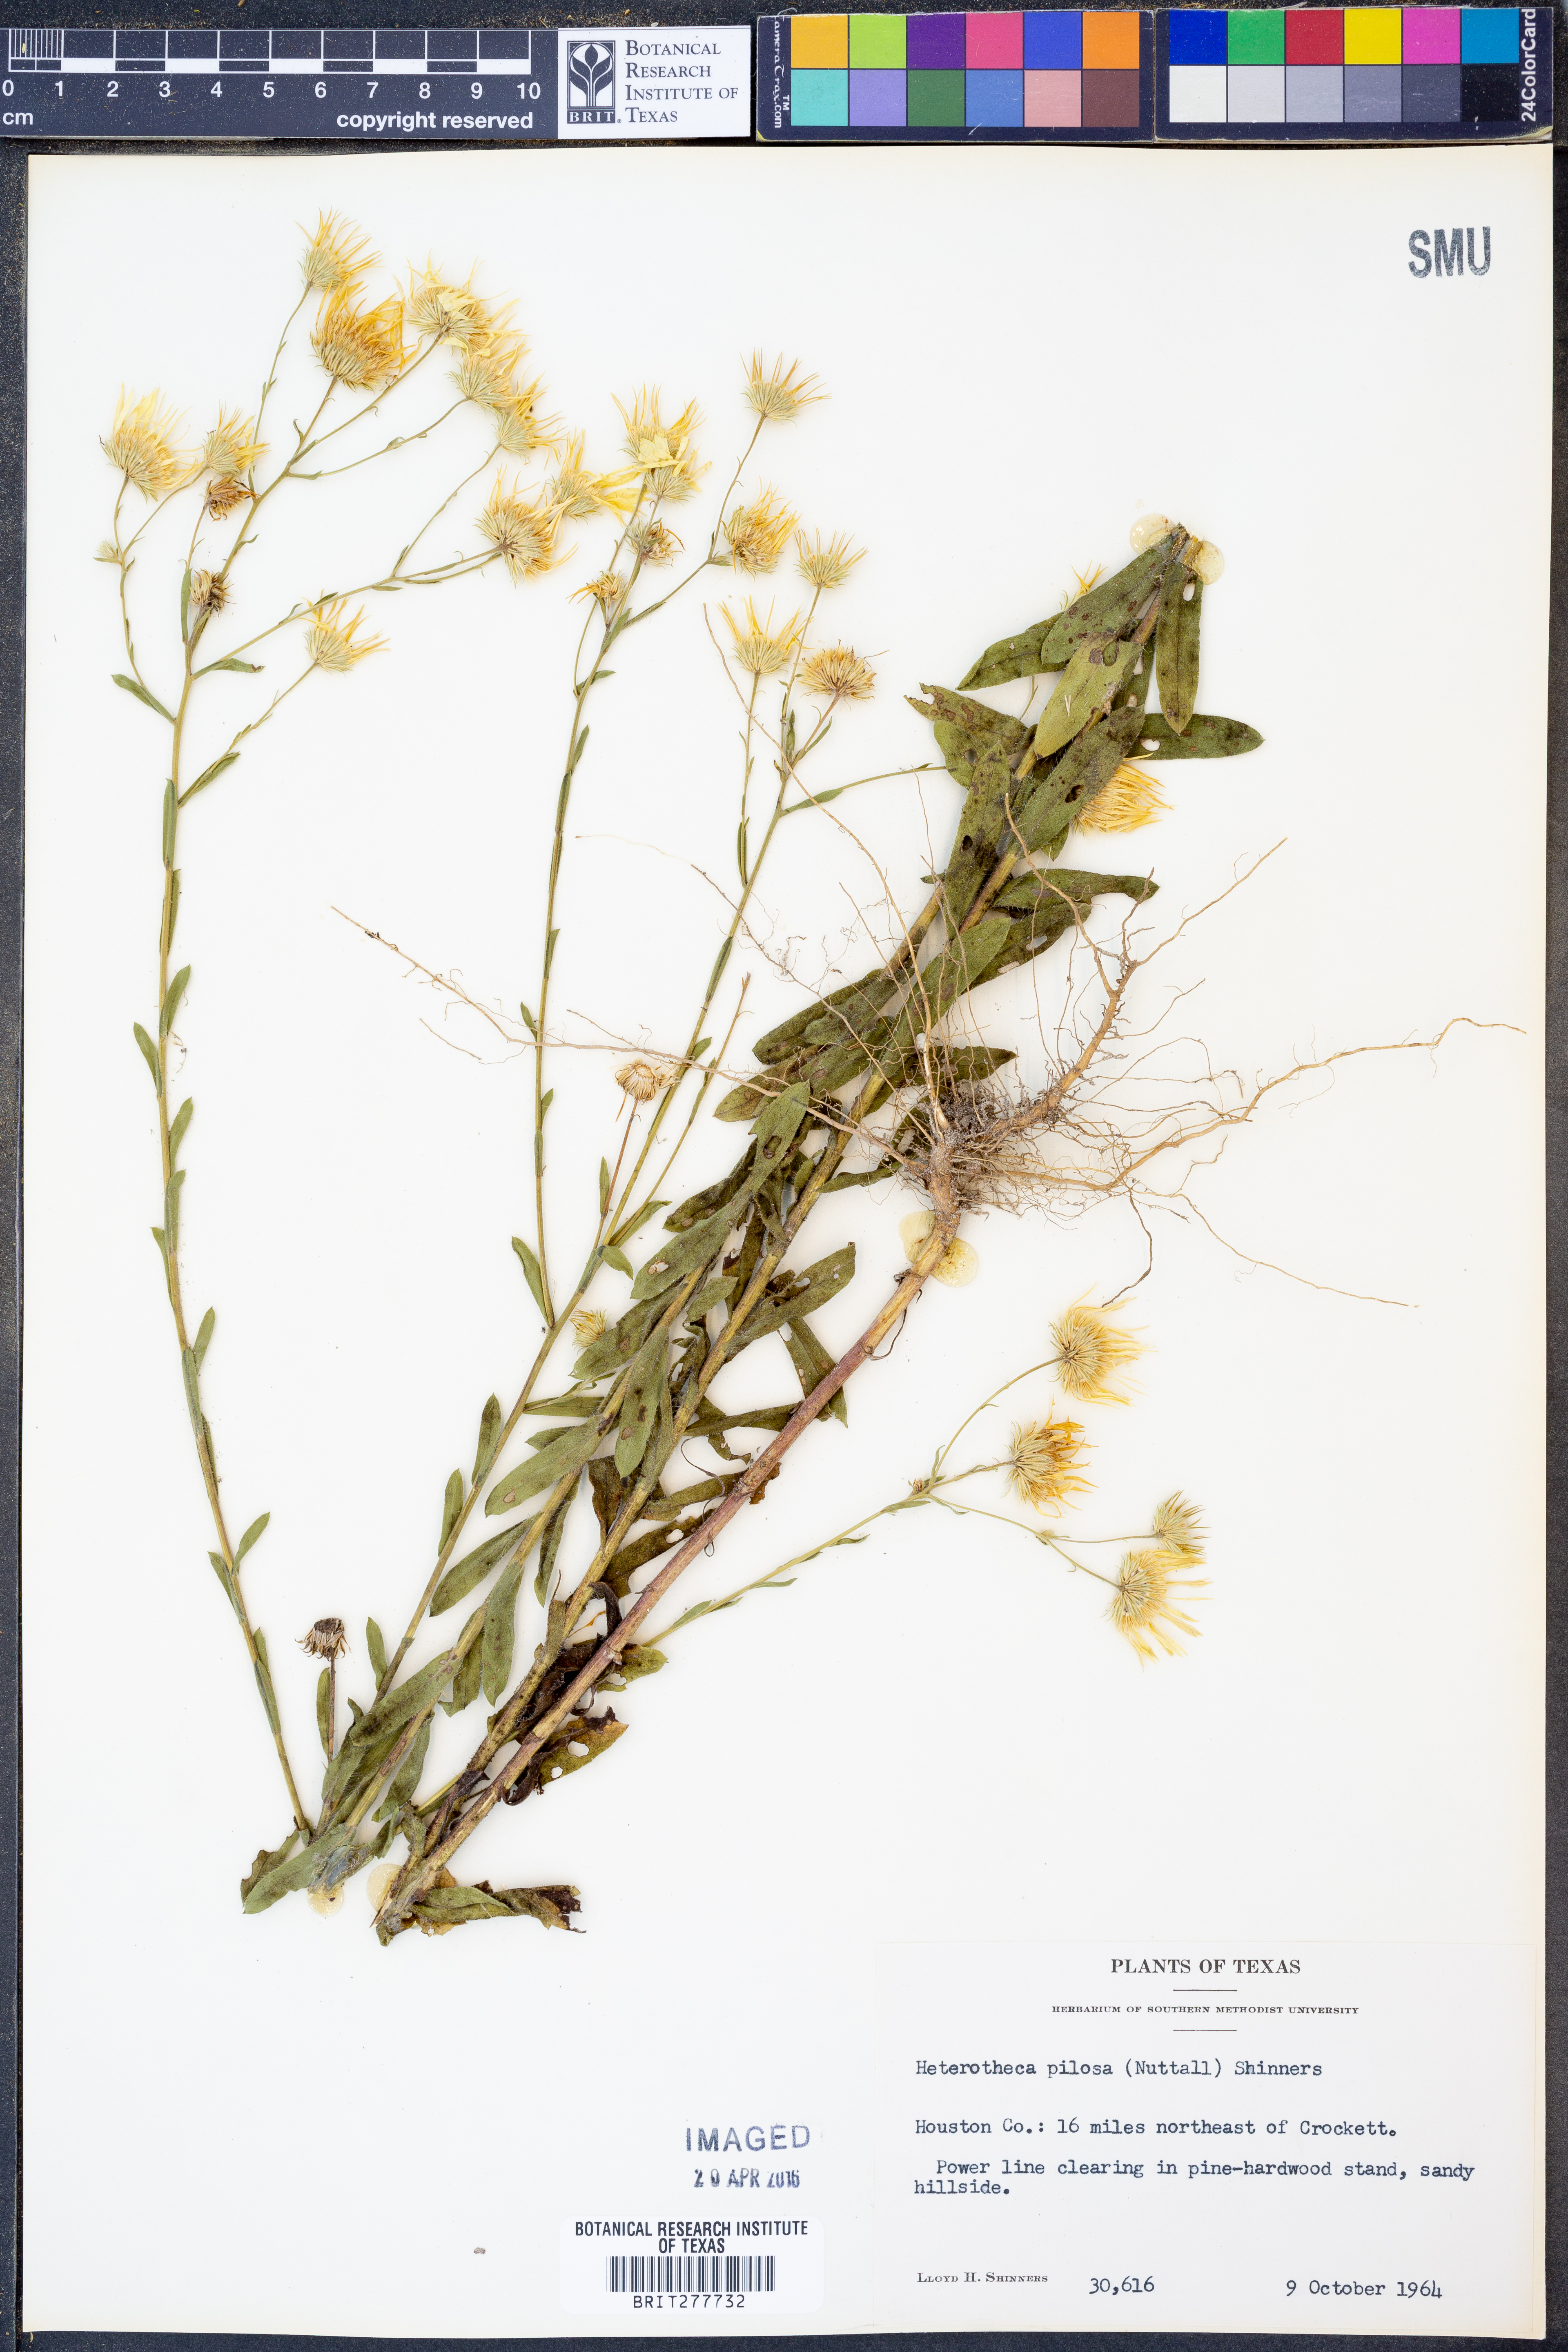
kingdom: Plantae
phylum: Tracheophyta
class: Magnoliopsida
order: Asterales
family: Asteraceae
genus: Bradburia
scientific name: Bradburia pilosa
